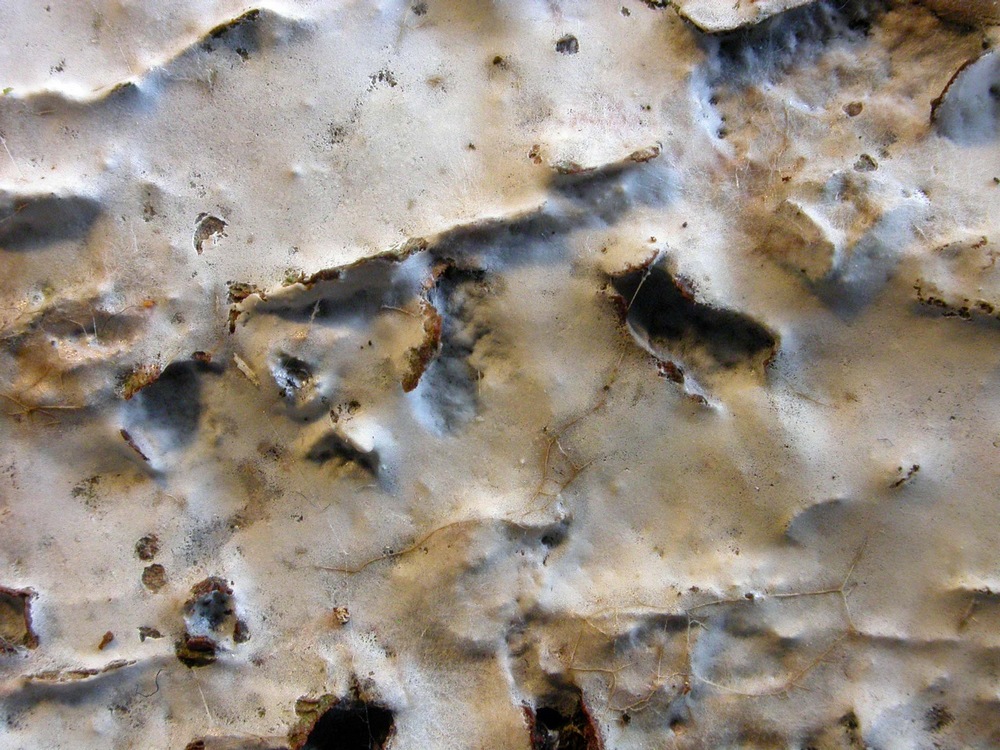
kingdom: Fungi
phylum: Basidiomycota
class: Agaricomycetes
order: Atheliales
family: Atheliaceae
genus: Athelia
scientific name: Athelia epiphylla
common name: almindelig barkhinde
